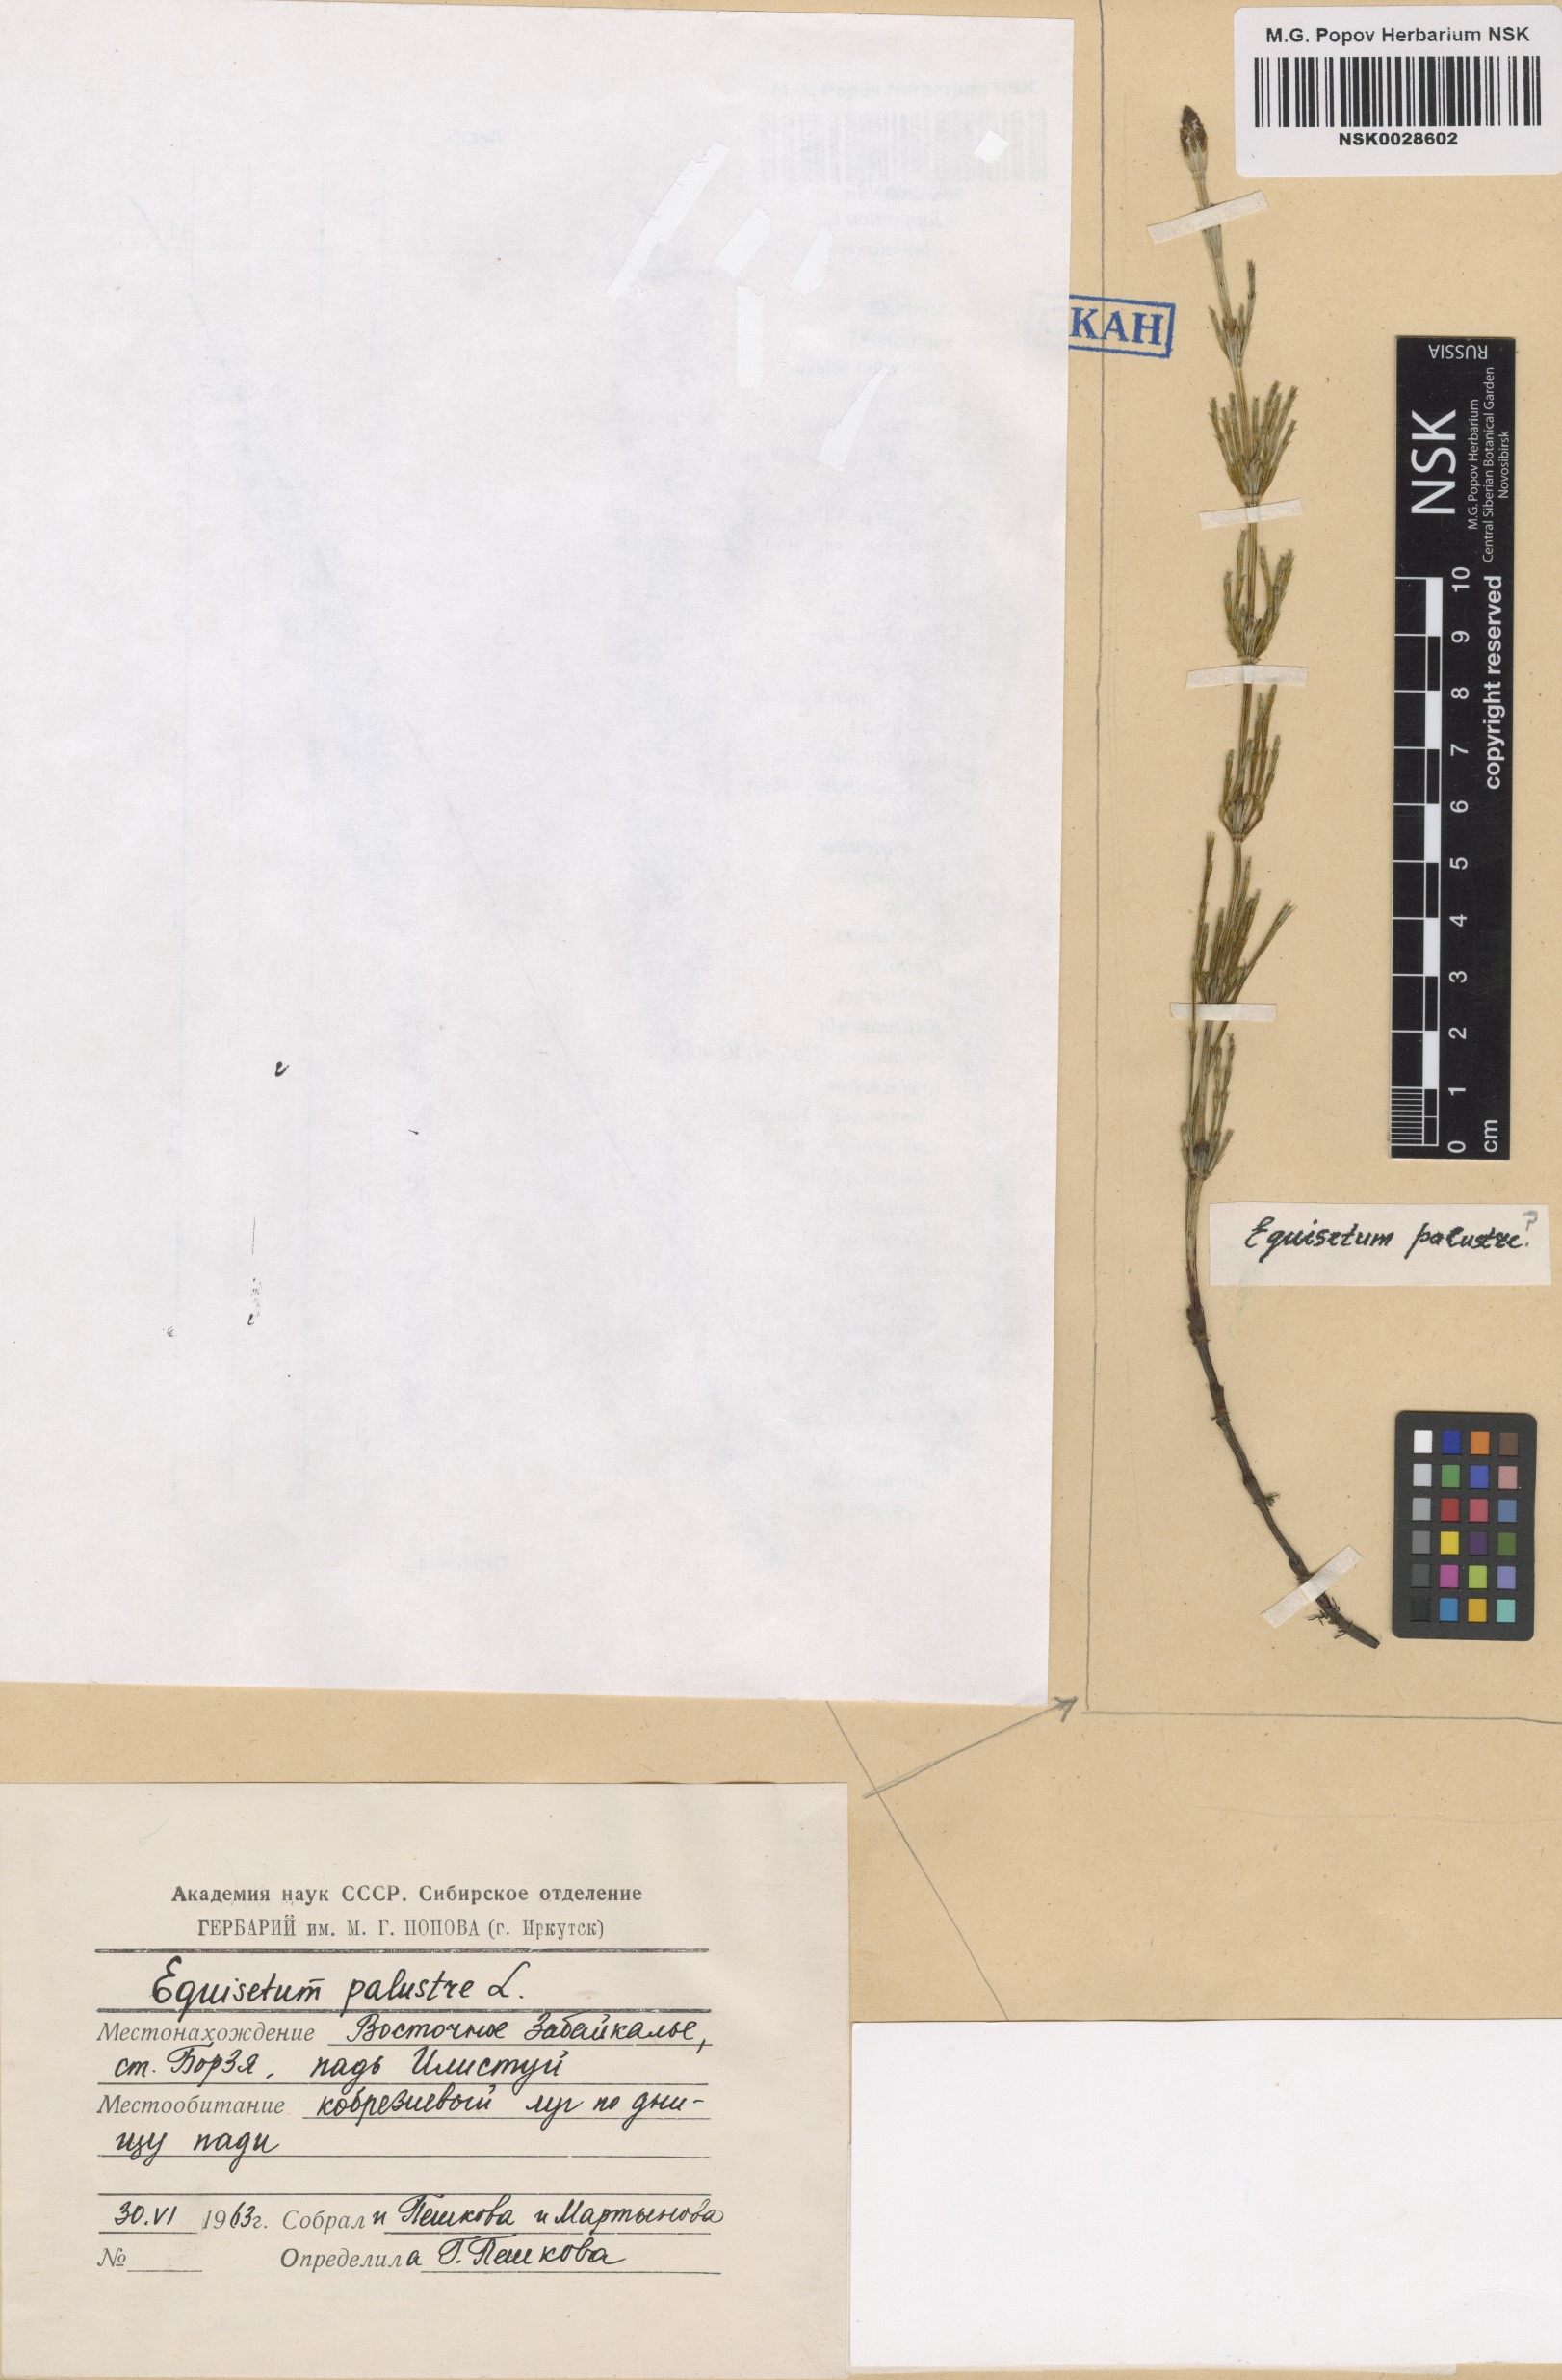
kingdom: Plantae
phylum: Tracheophyta
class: Polypodiopsida
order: Equisetales
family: Equisetaceae
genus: Equisetum
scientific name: Equisetum palustre
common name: Marsh horsetail
